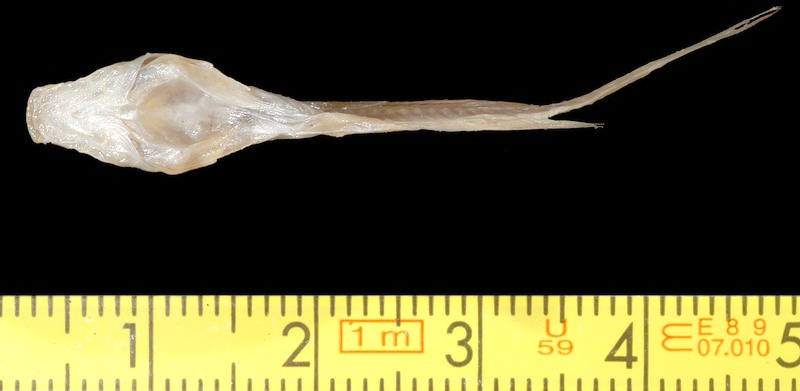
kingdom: Animalia
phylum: Chordata
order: Siluriformes
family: Heptapteridae
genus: Pimelodella
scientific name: Pimelodella yuncensis
